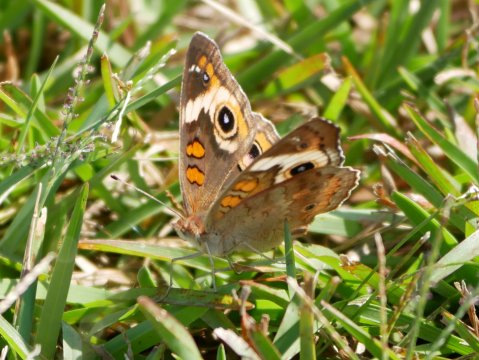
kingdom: Animalia
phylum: Arthropoda
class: Insecta
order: Lepidoptera
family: Nymphalidae
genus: Junonia
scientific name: Junonia coenia
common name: Common Buckeye
